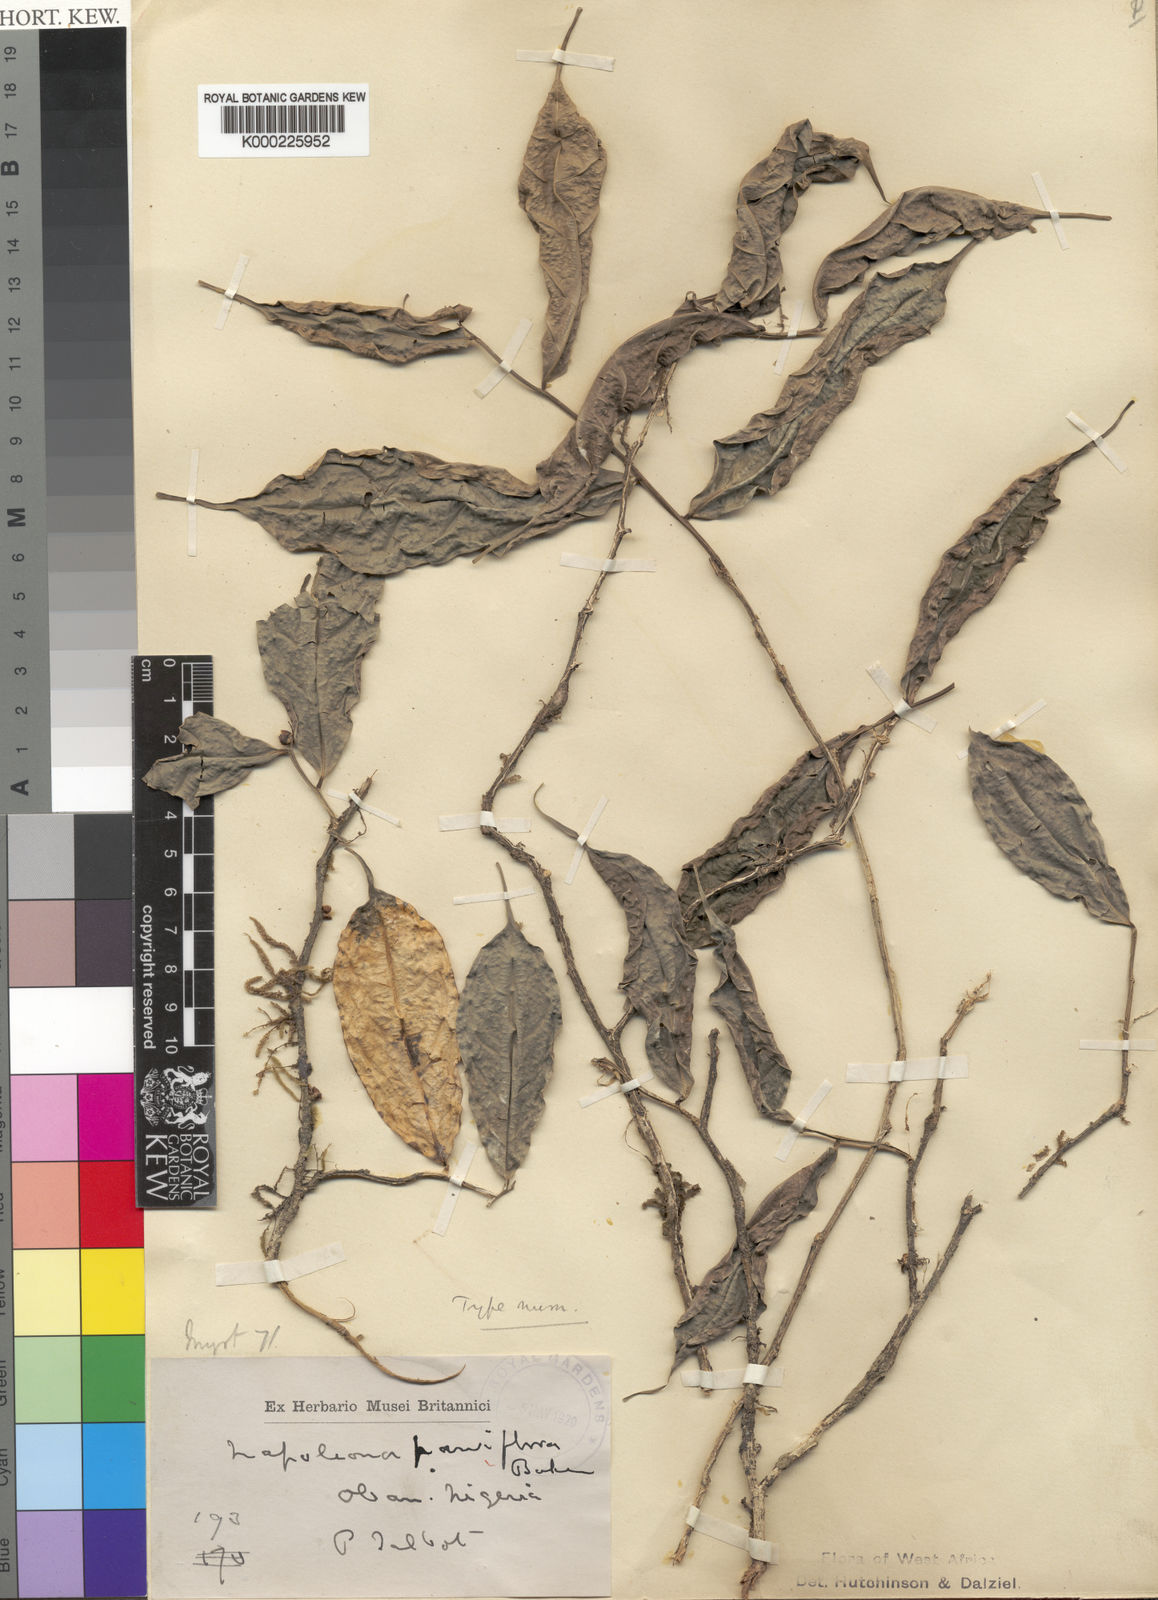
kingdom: Plantae
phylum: Tracheophyta
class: Magnoliopsida
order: Ericales
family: Lecythidaceae
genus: Napoleonaea
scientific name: Napoleonaea angolensis
